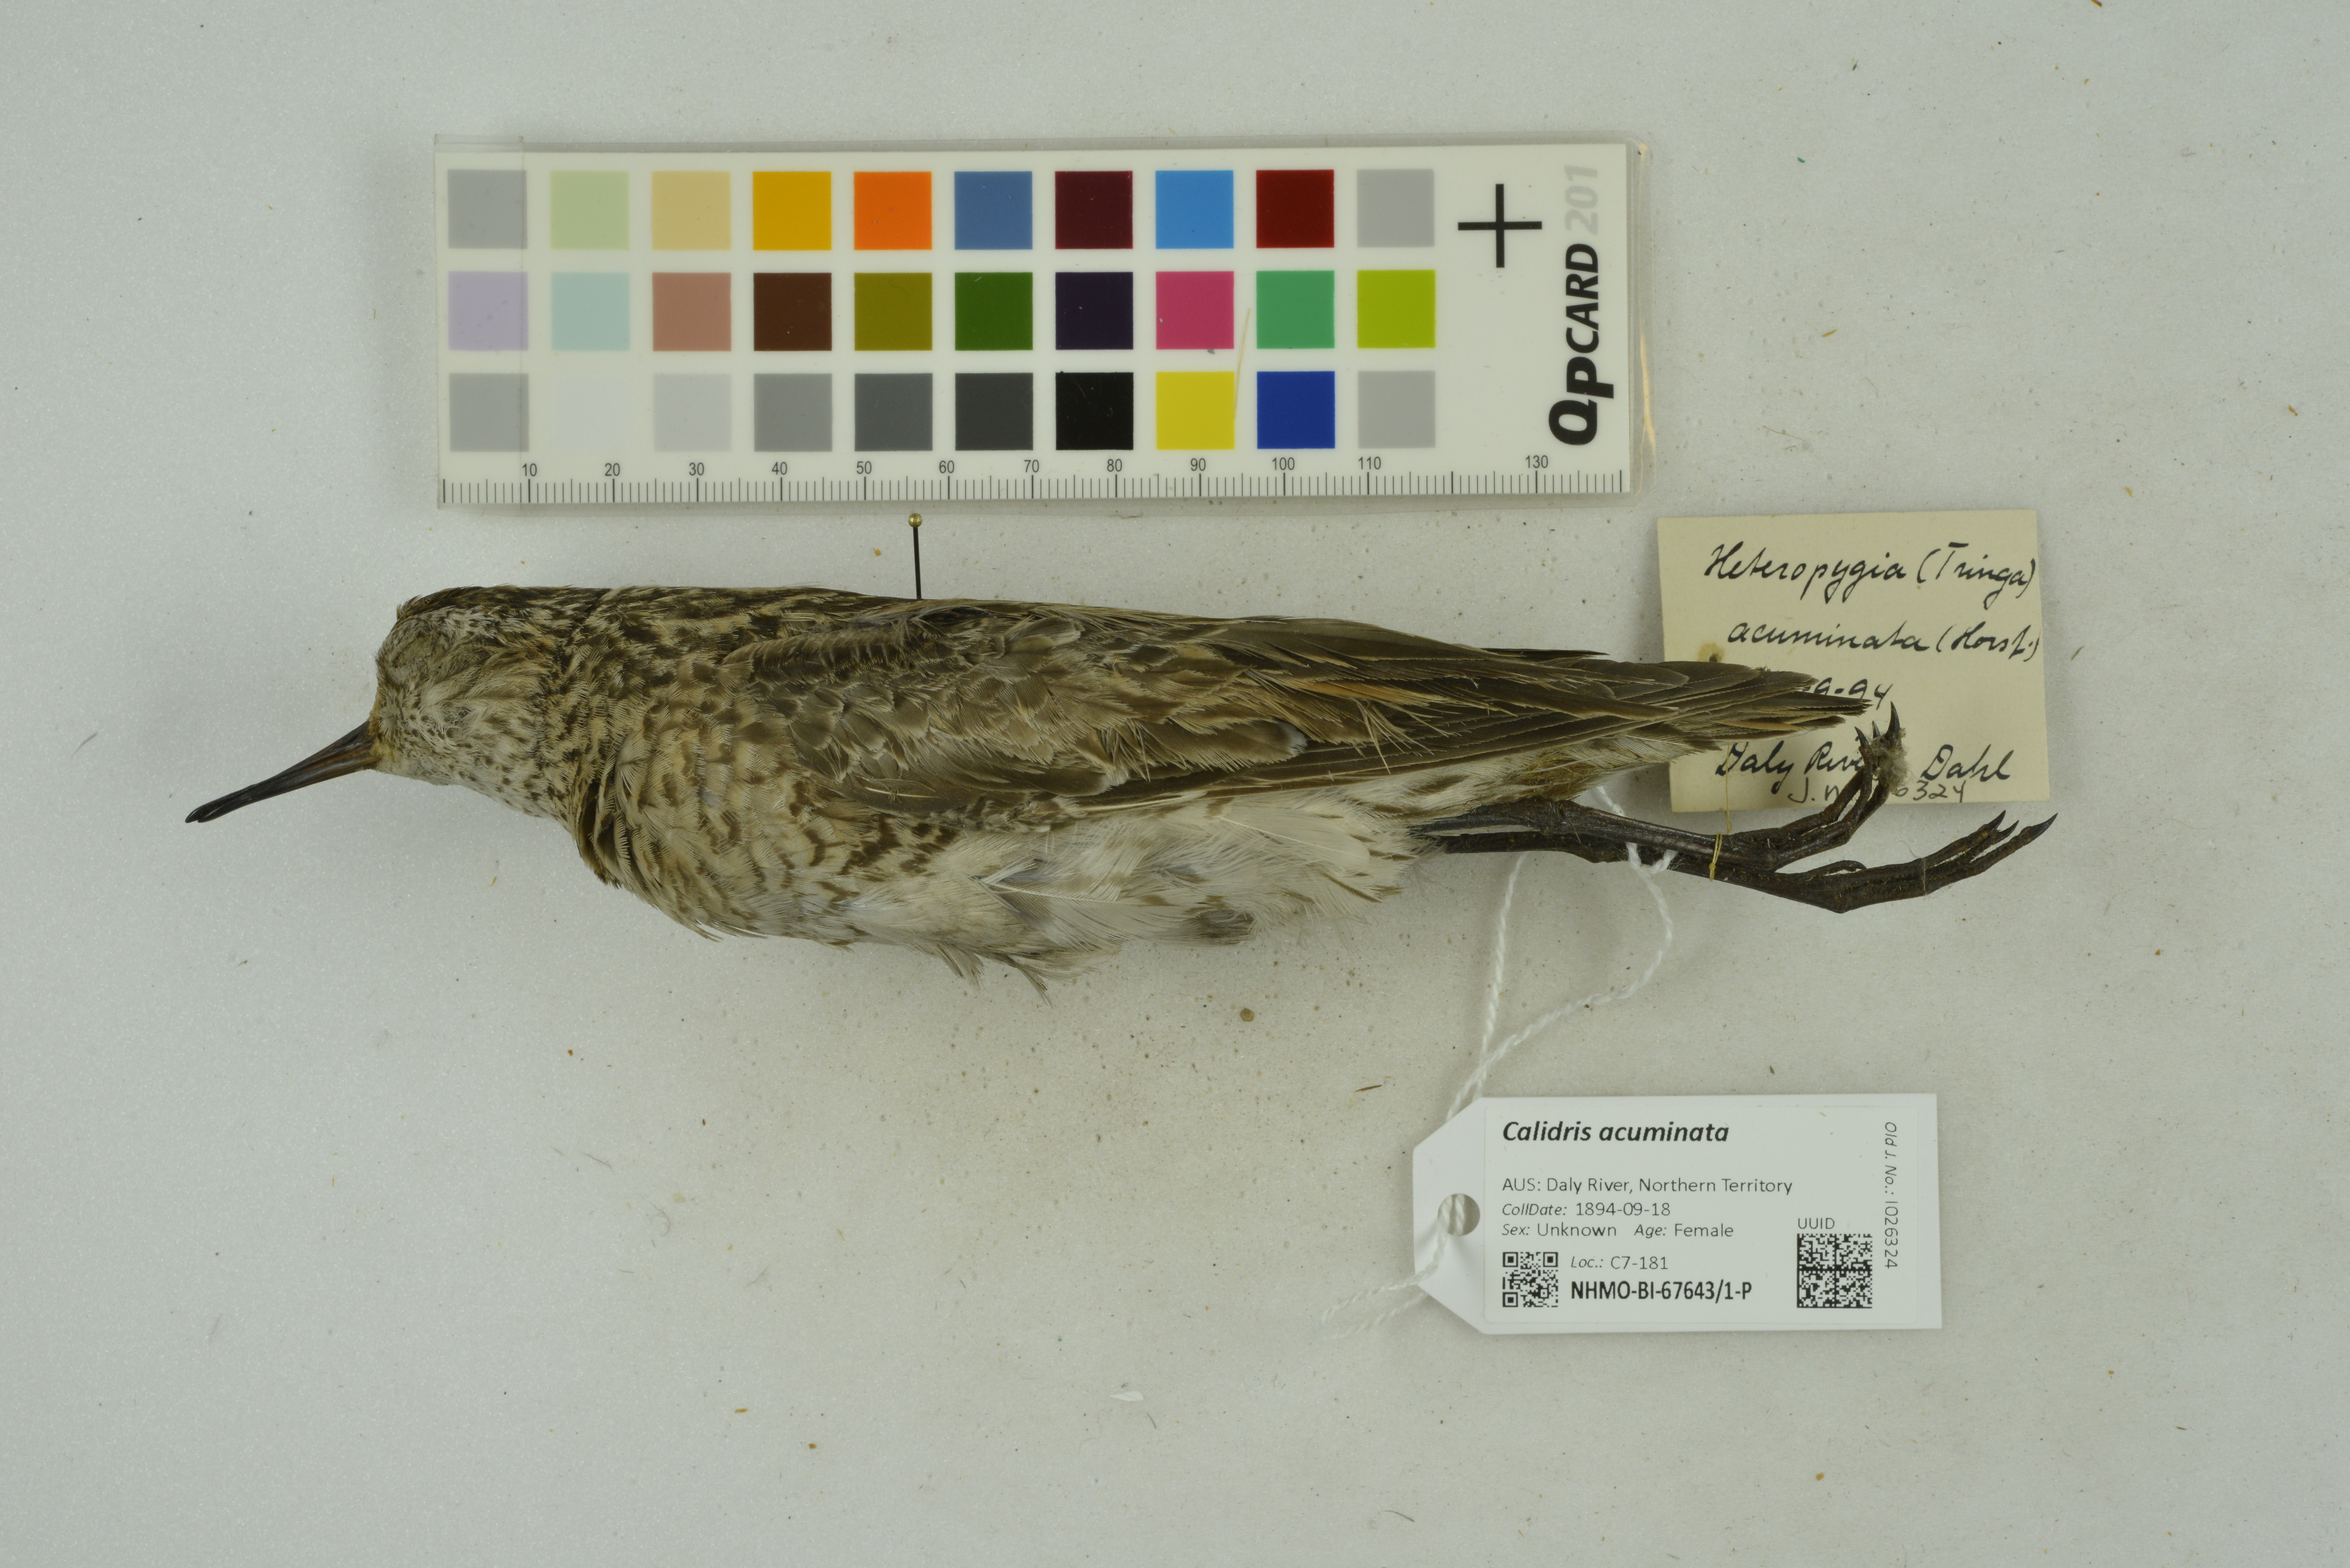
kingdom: Animalia
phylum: Chordata
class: Aves
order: Charadriiformes
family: Scolopacidae
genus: Calidris
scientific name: Calidris acuminata
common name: Sharp-tailed sandpiper
